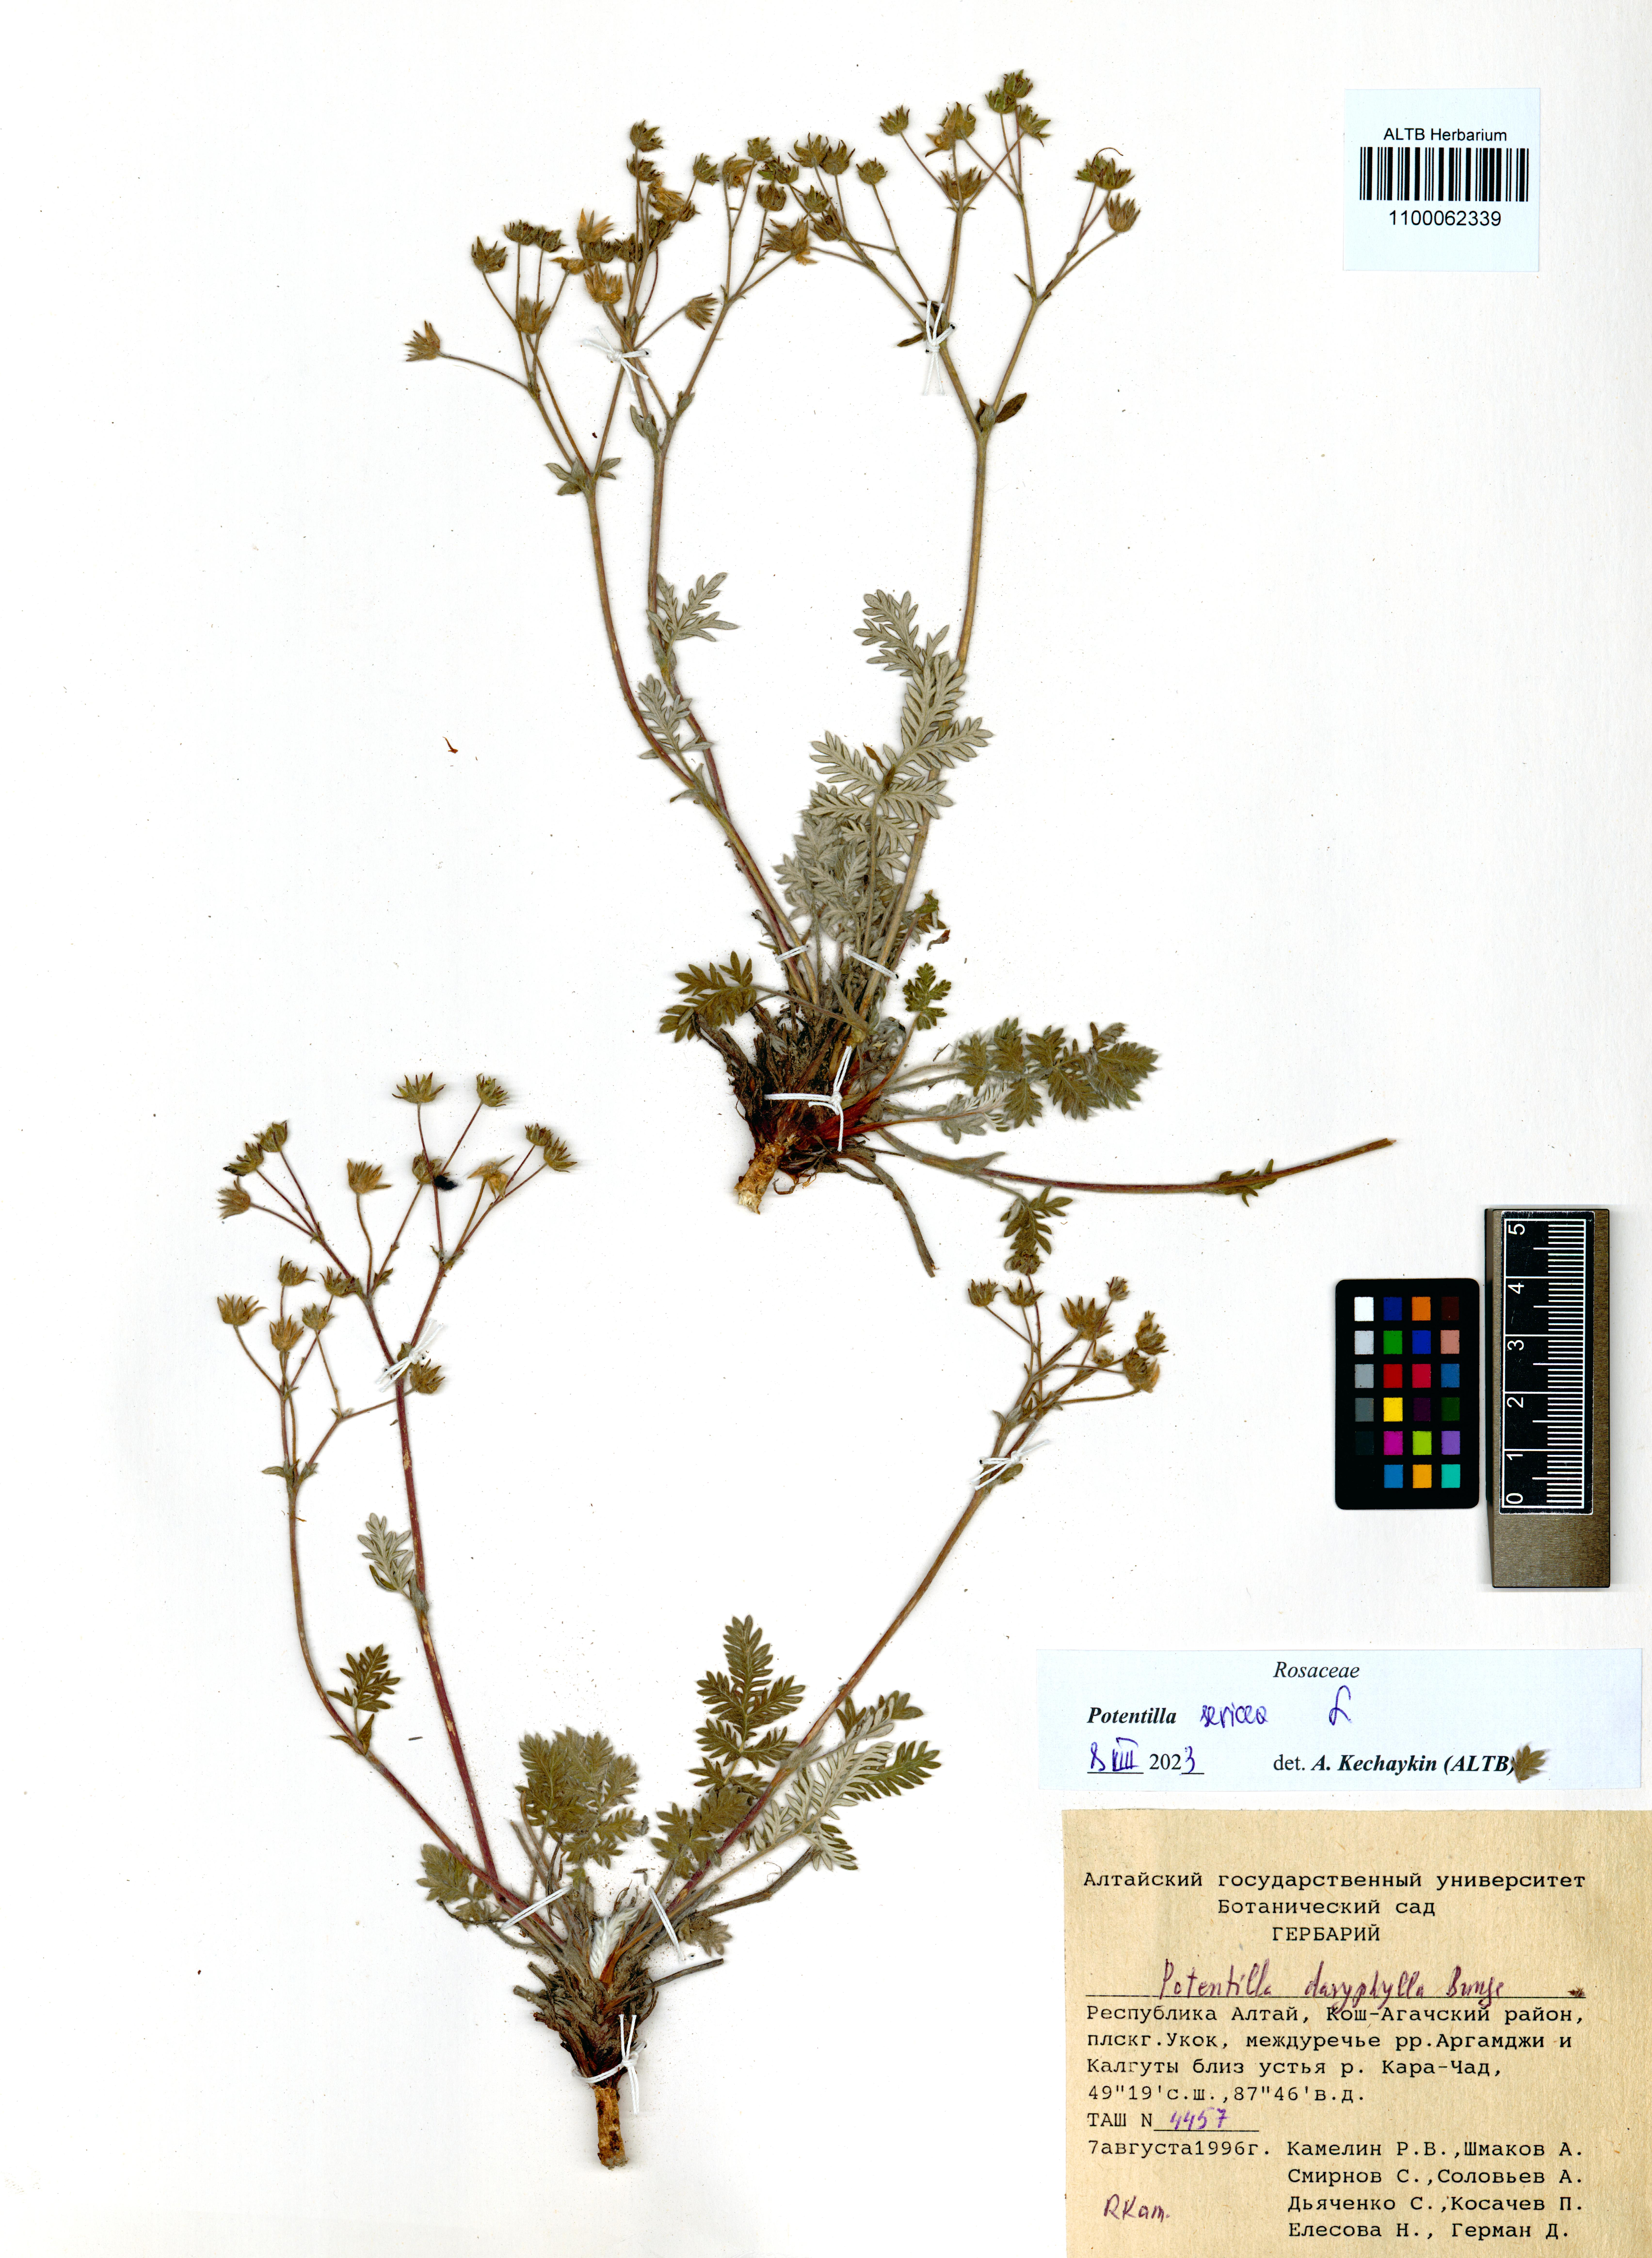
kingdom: Plantae
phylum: Tracheophyta
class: Magnoliopsida
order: Rosales
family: Rosaceae
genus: Potentilla
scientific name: Potentilla sericea
